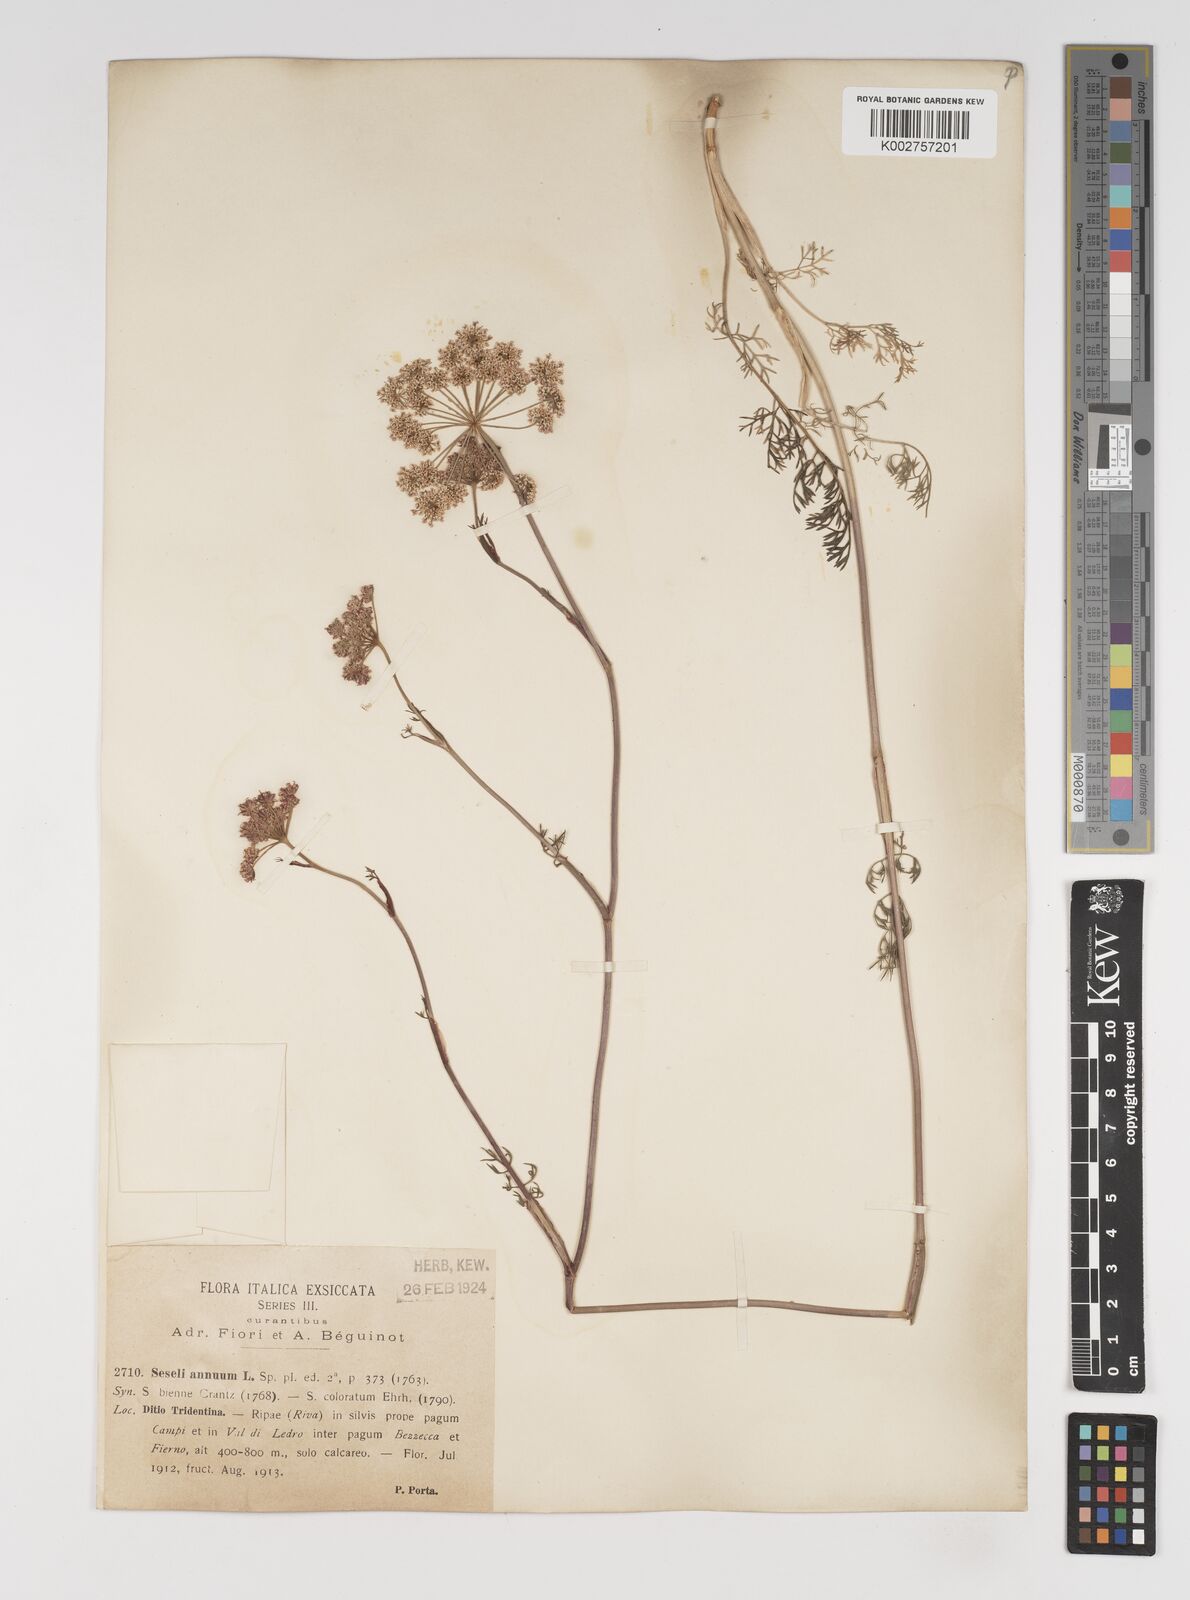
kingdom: Plantae
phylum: Tracheophyta
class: Magnoliopsida
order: Apiales
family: Apiaceae
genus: Seseli
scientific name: Seseli annuum
